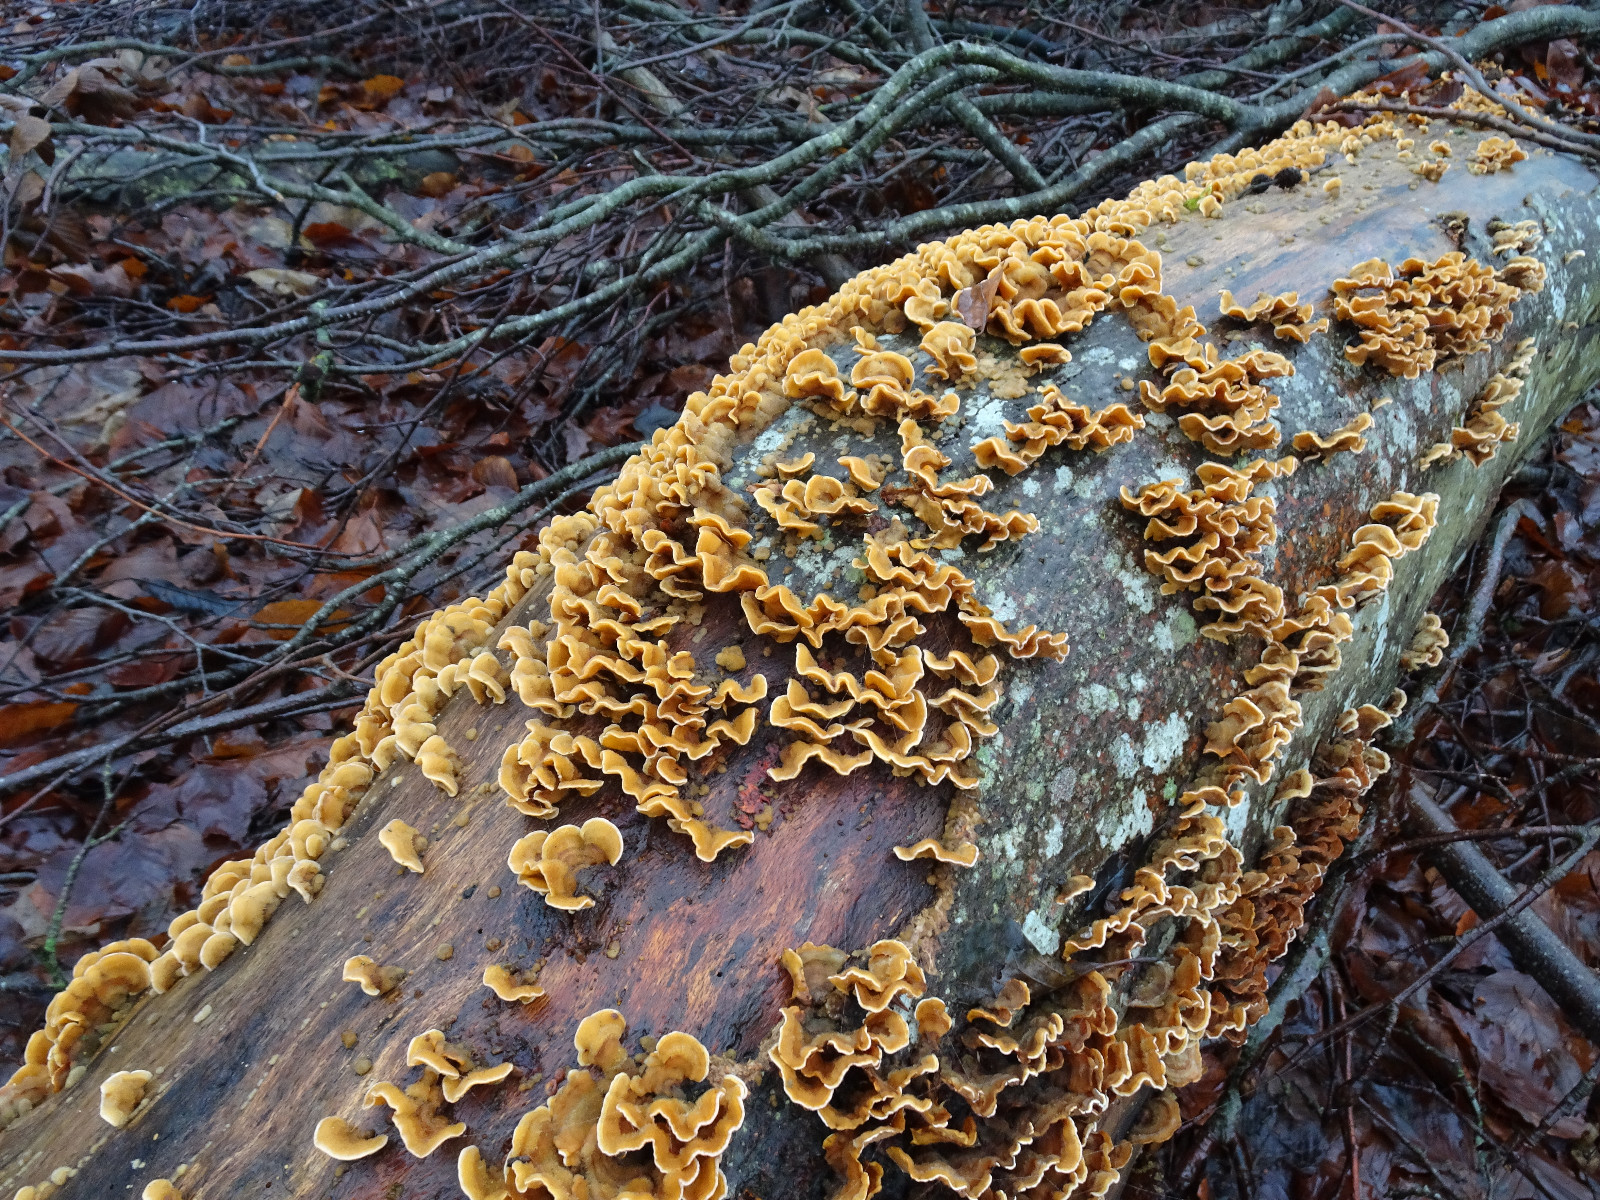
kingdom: Fungi
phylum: Basidiomycota
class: Agaricomycetes
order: Russulales
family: Stereaceae
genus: Stereum
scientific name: Stereum hirsutum
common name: håret lædersvamp
